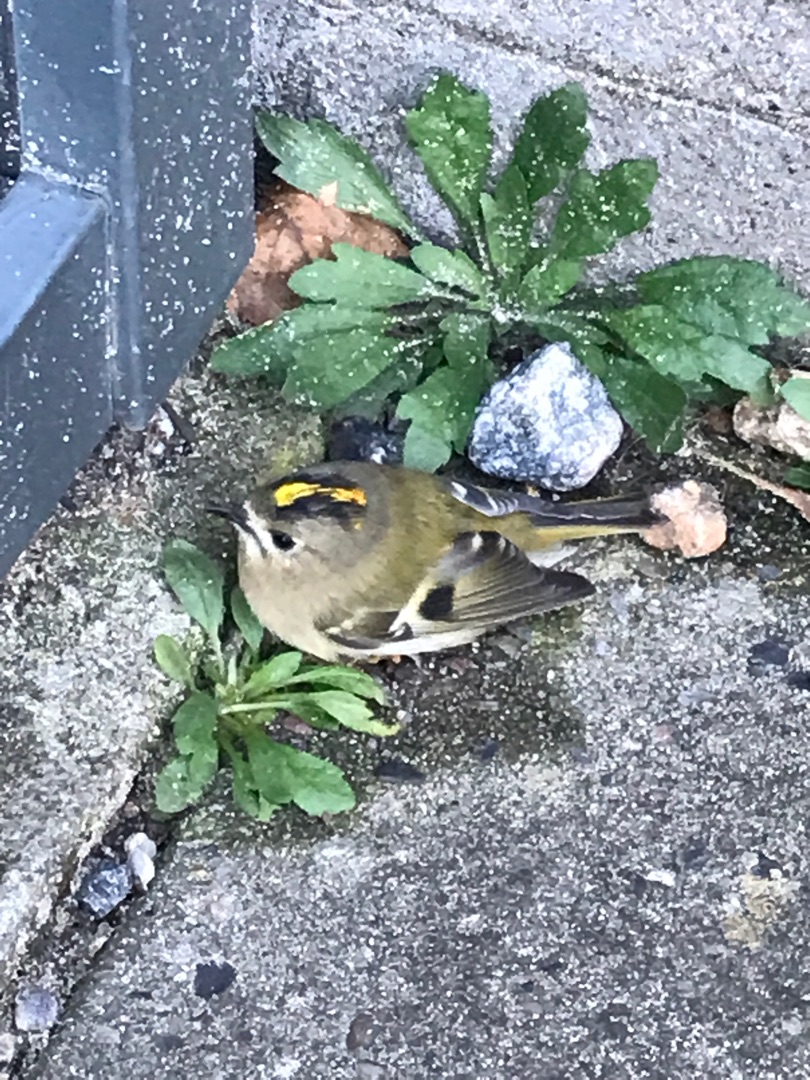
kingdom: Animalia
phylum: Chordata
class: Aves
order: Passeriformes
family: Regulidae
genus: Regulus
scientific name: Regulus regulus
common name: Fuglekonge
